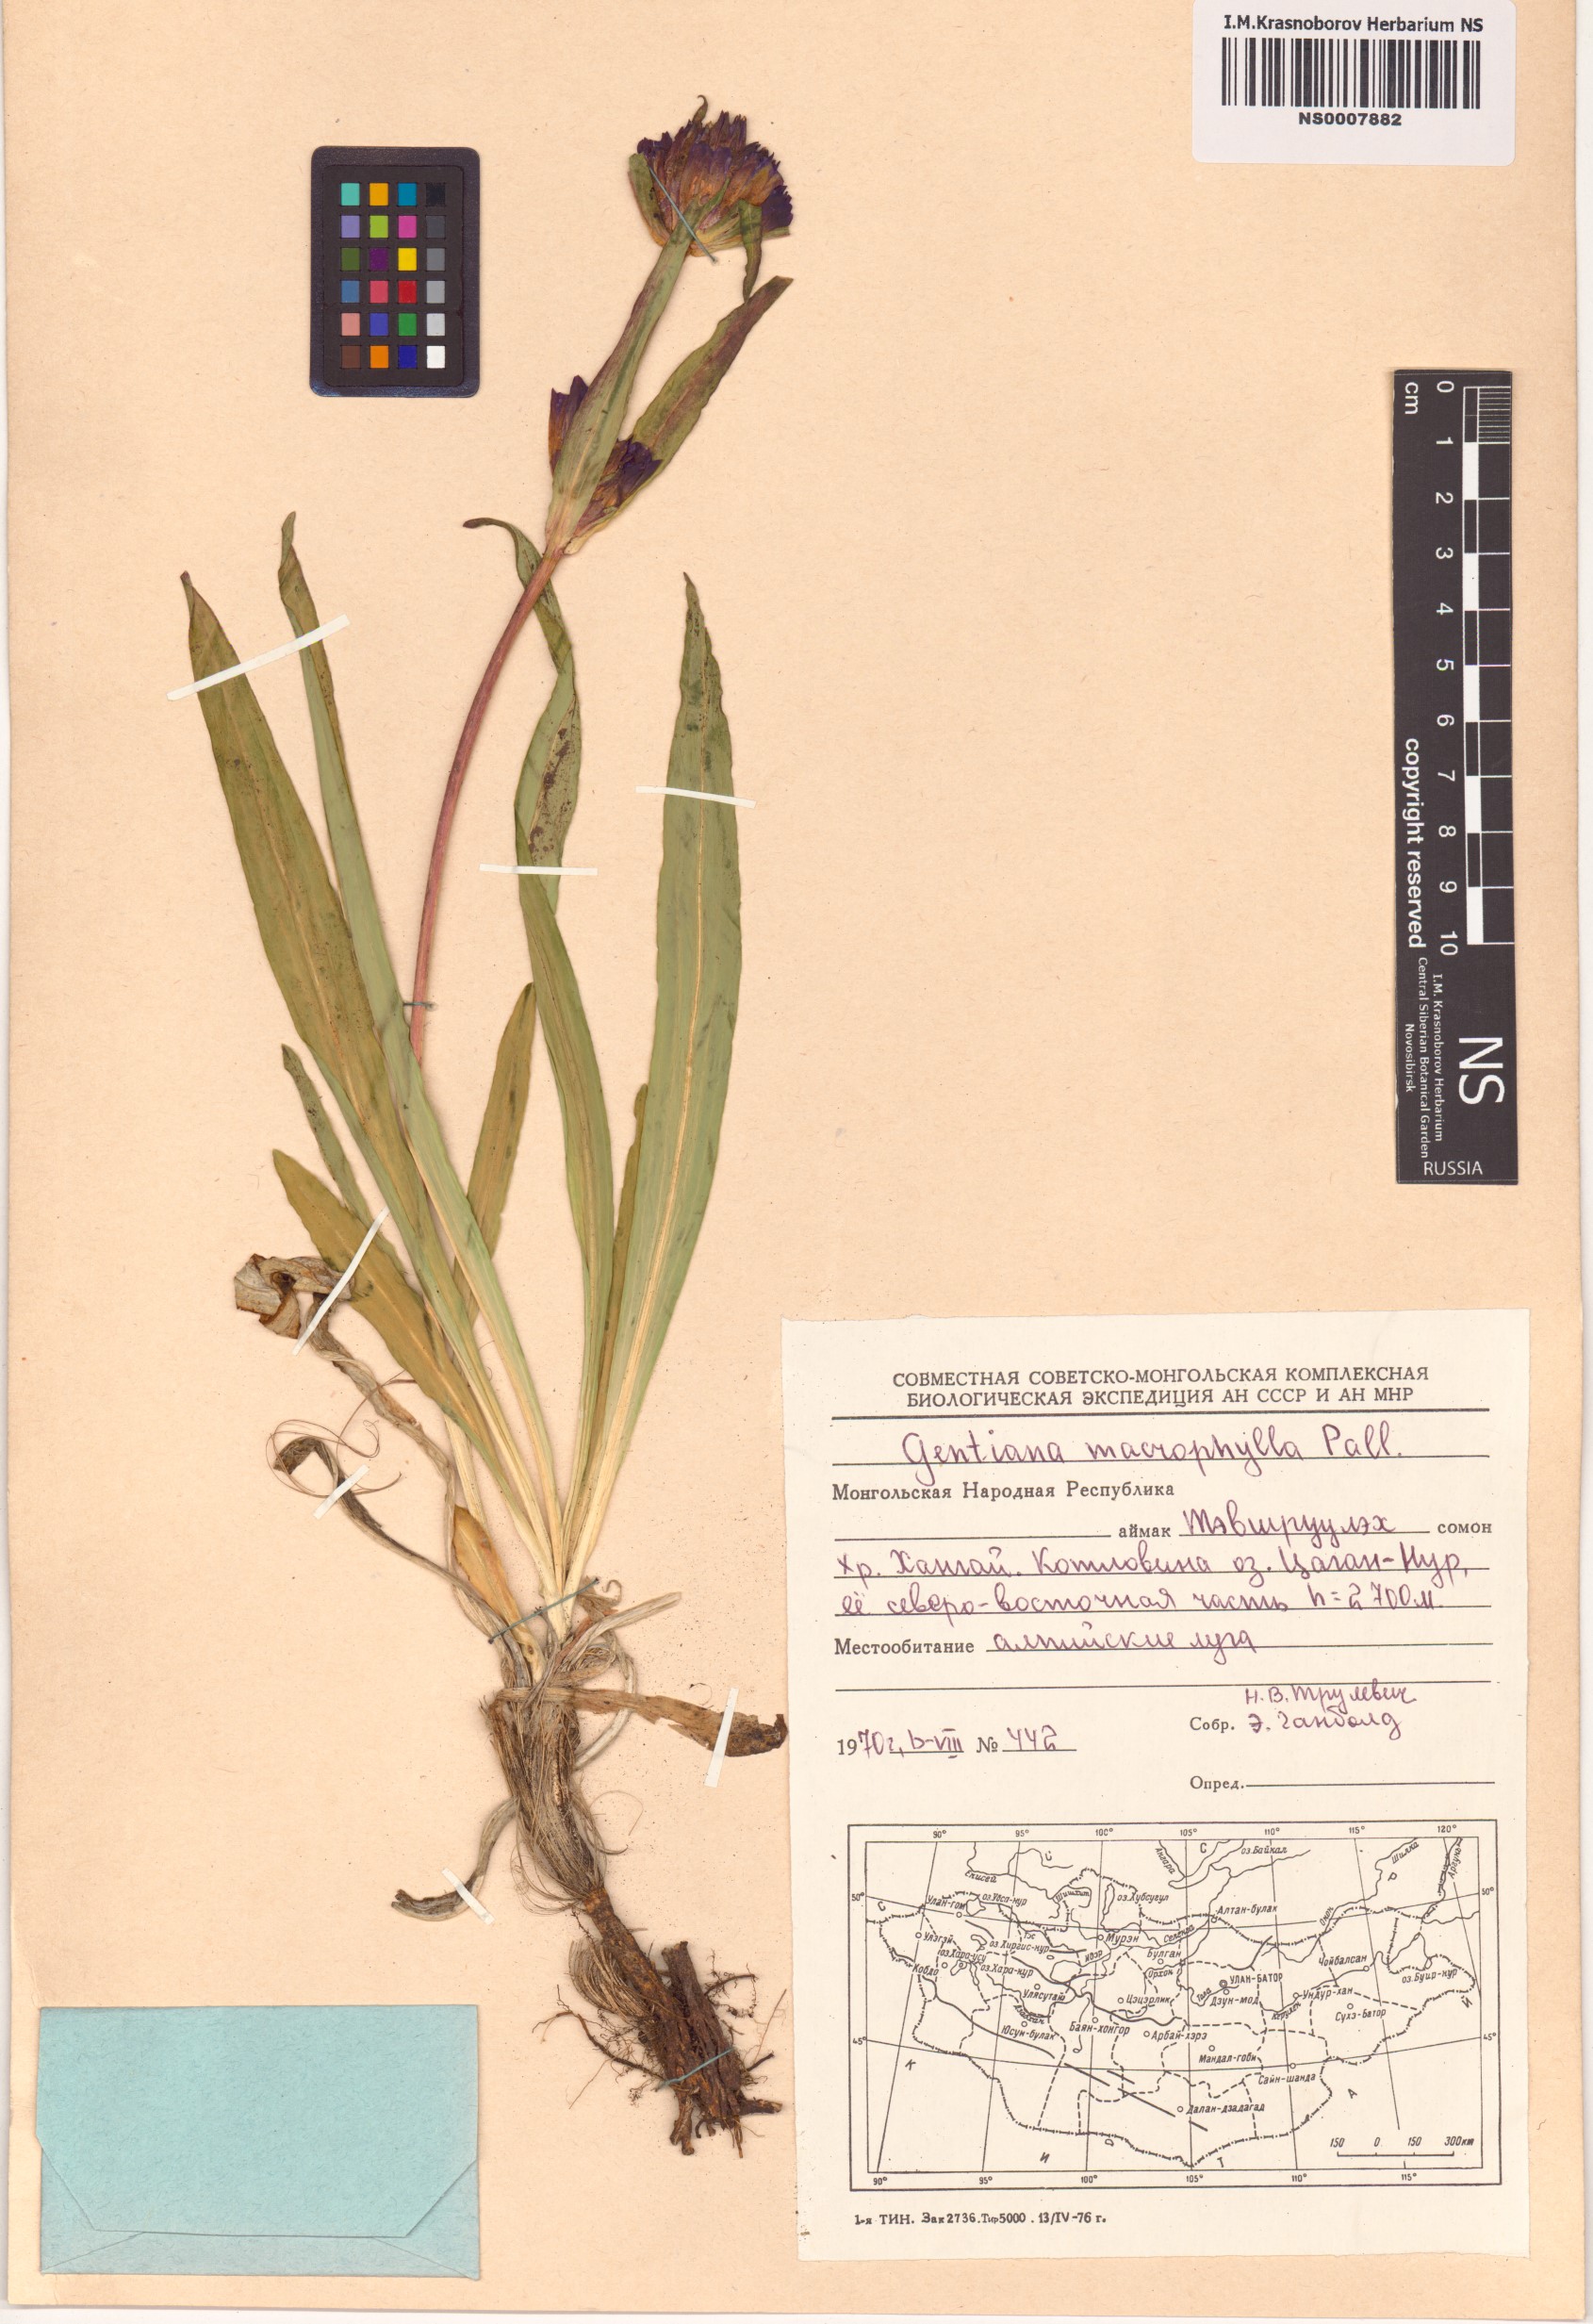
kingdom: Plantae
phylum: Tracheophyta
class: Magnoliopsida
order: Gentianales
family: Gentianaceae
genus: Gentiana
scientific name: Gentiana macrophylla
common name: Large-leaf gentian
